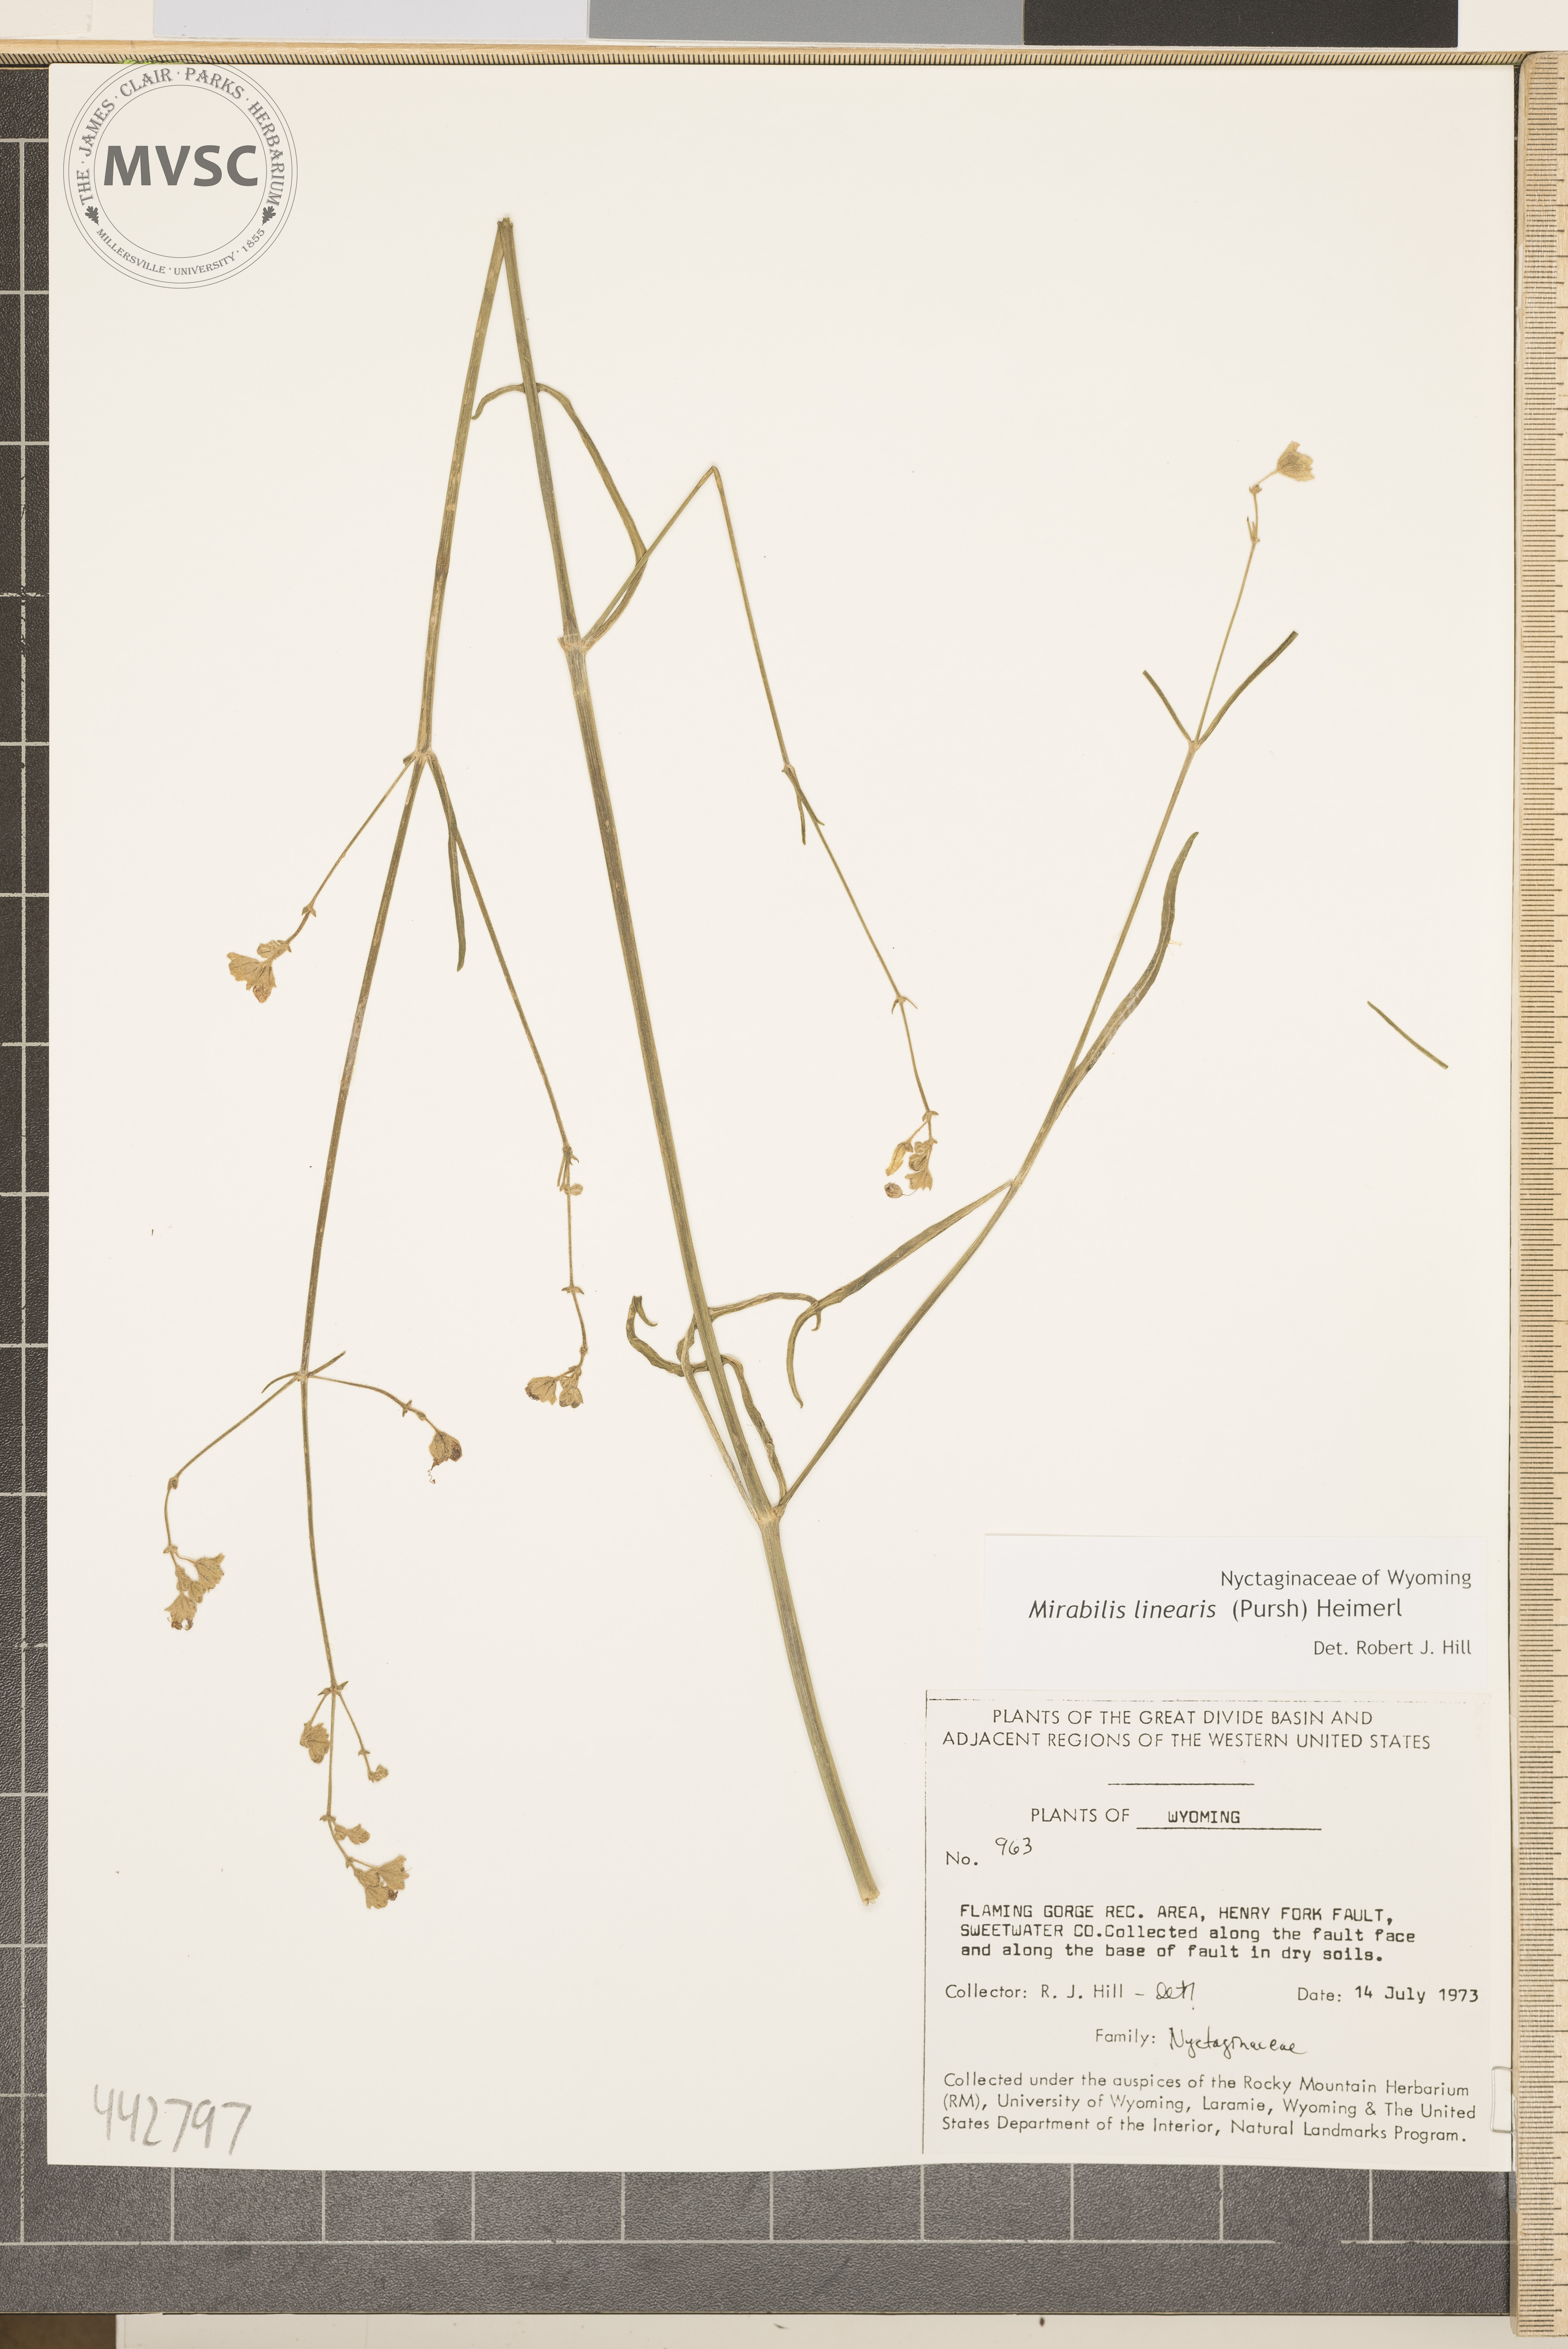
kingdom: Plantae
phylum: Tracheophyta
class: Magnoliopsida
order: Caryophyllales
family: Nyctaginaceae
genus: Mirabilis
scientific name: Mirabilis linearis
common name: Linear-leaved four-o'clock
